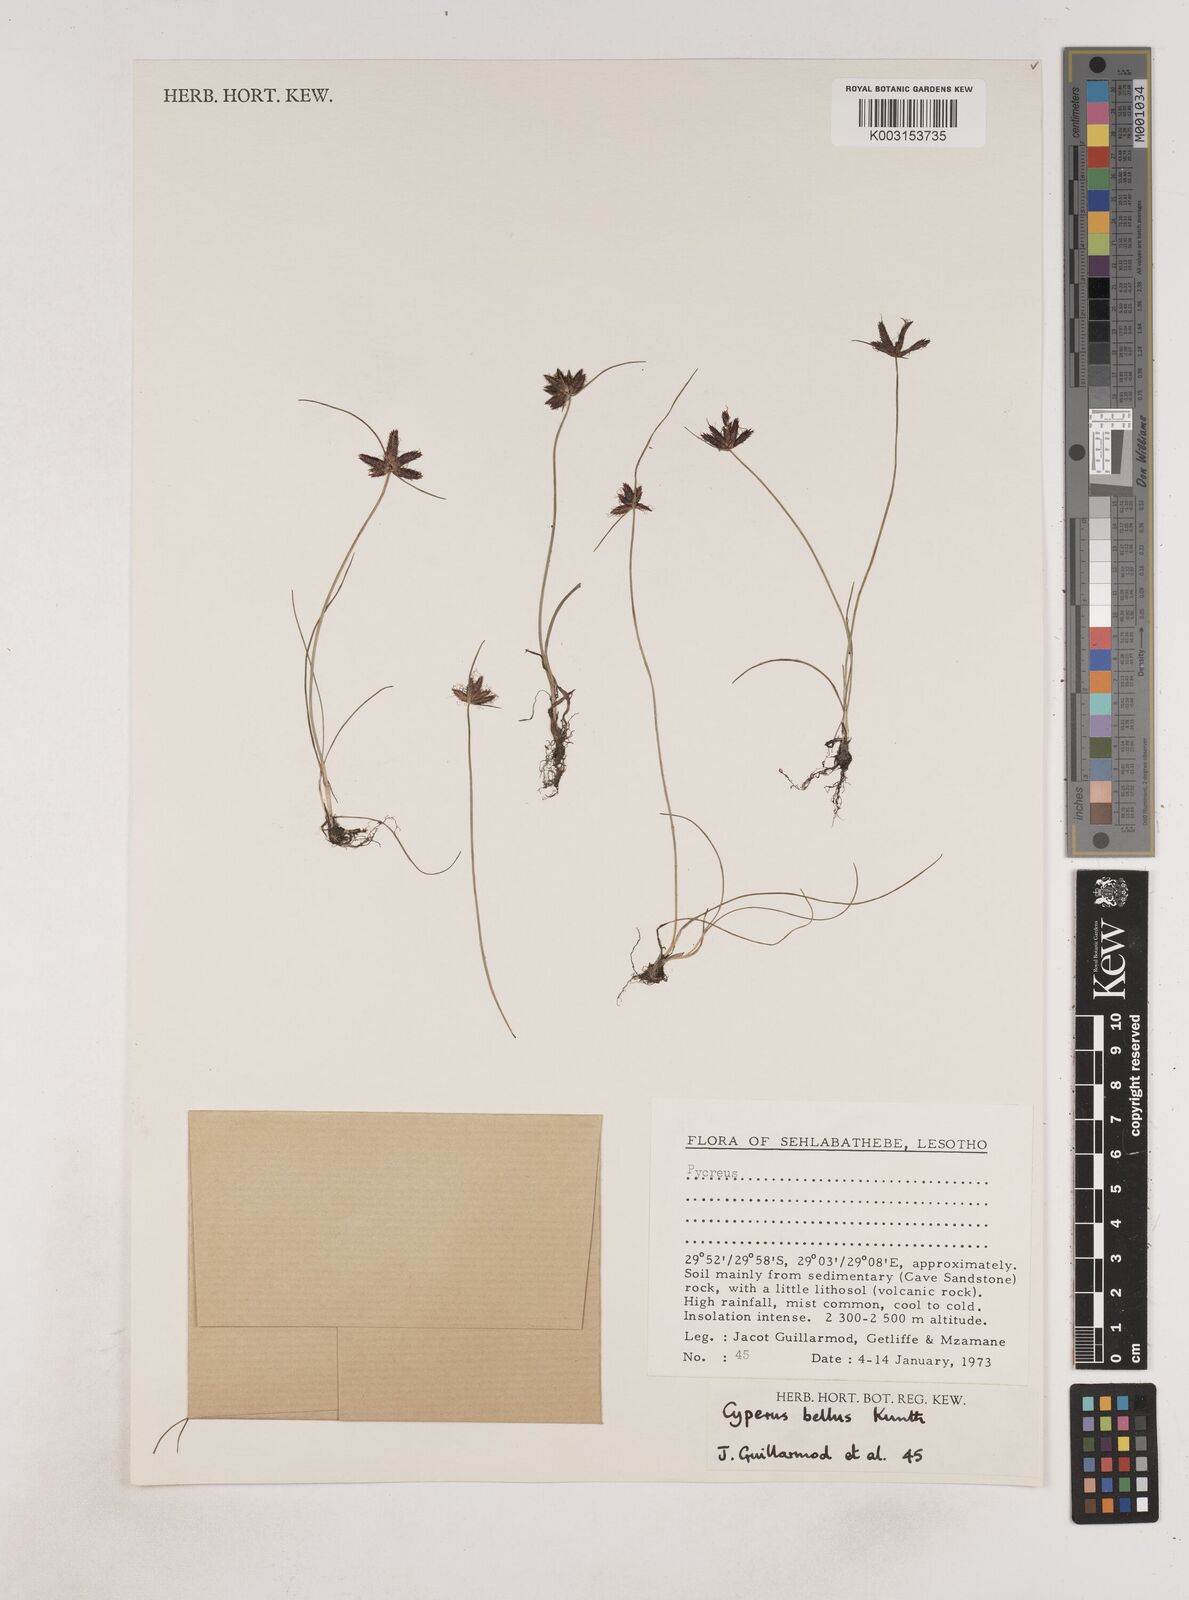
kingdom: Plantae
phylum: Tracheophyta
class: Liliopsida
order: Poales
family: Cyperaceae
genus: Cyperus
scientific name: Cyperus bellus
